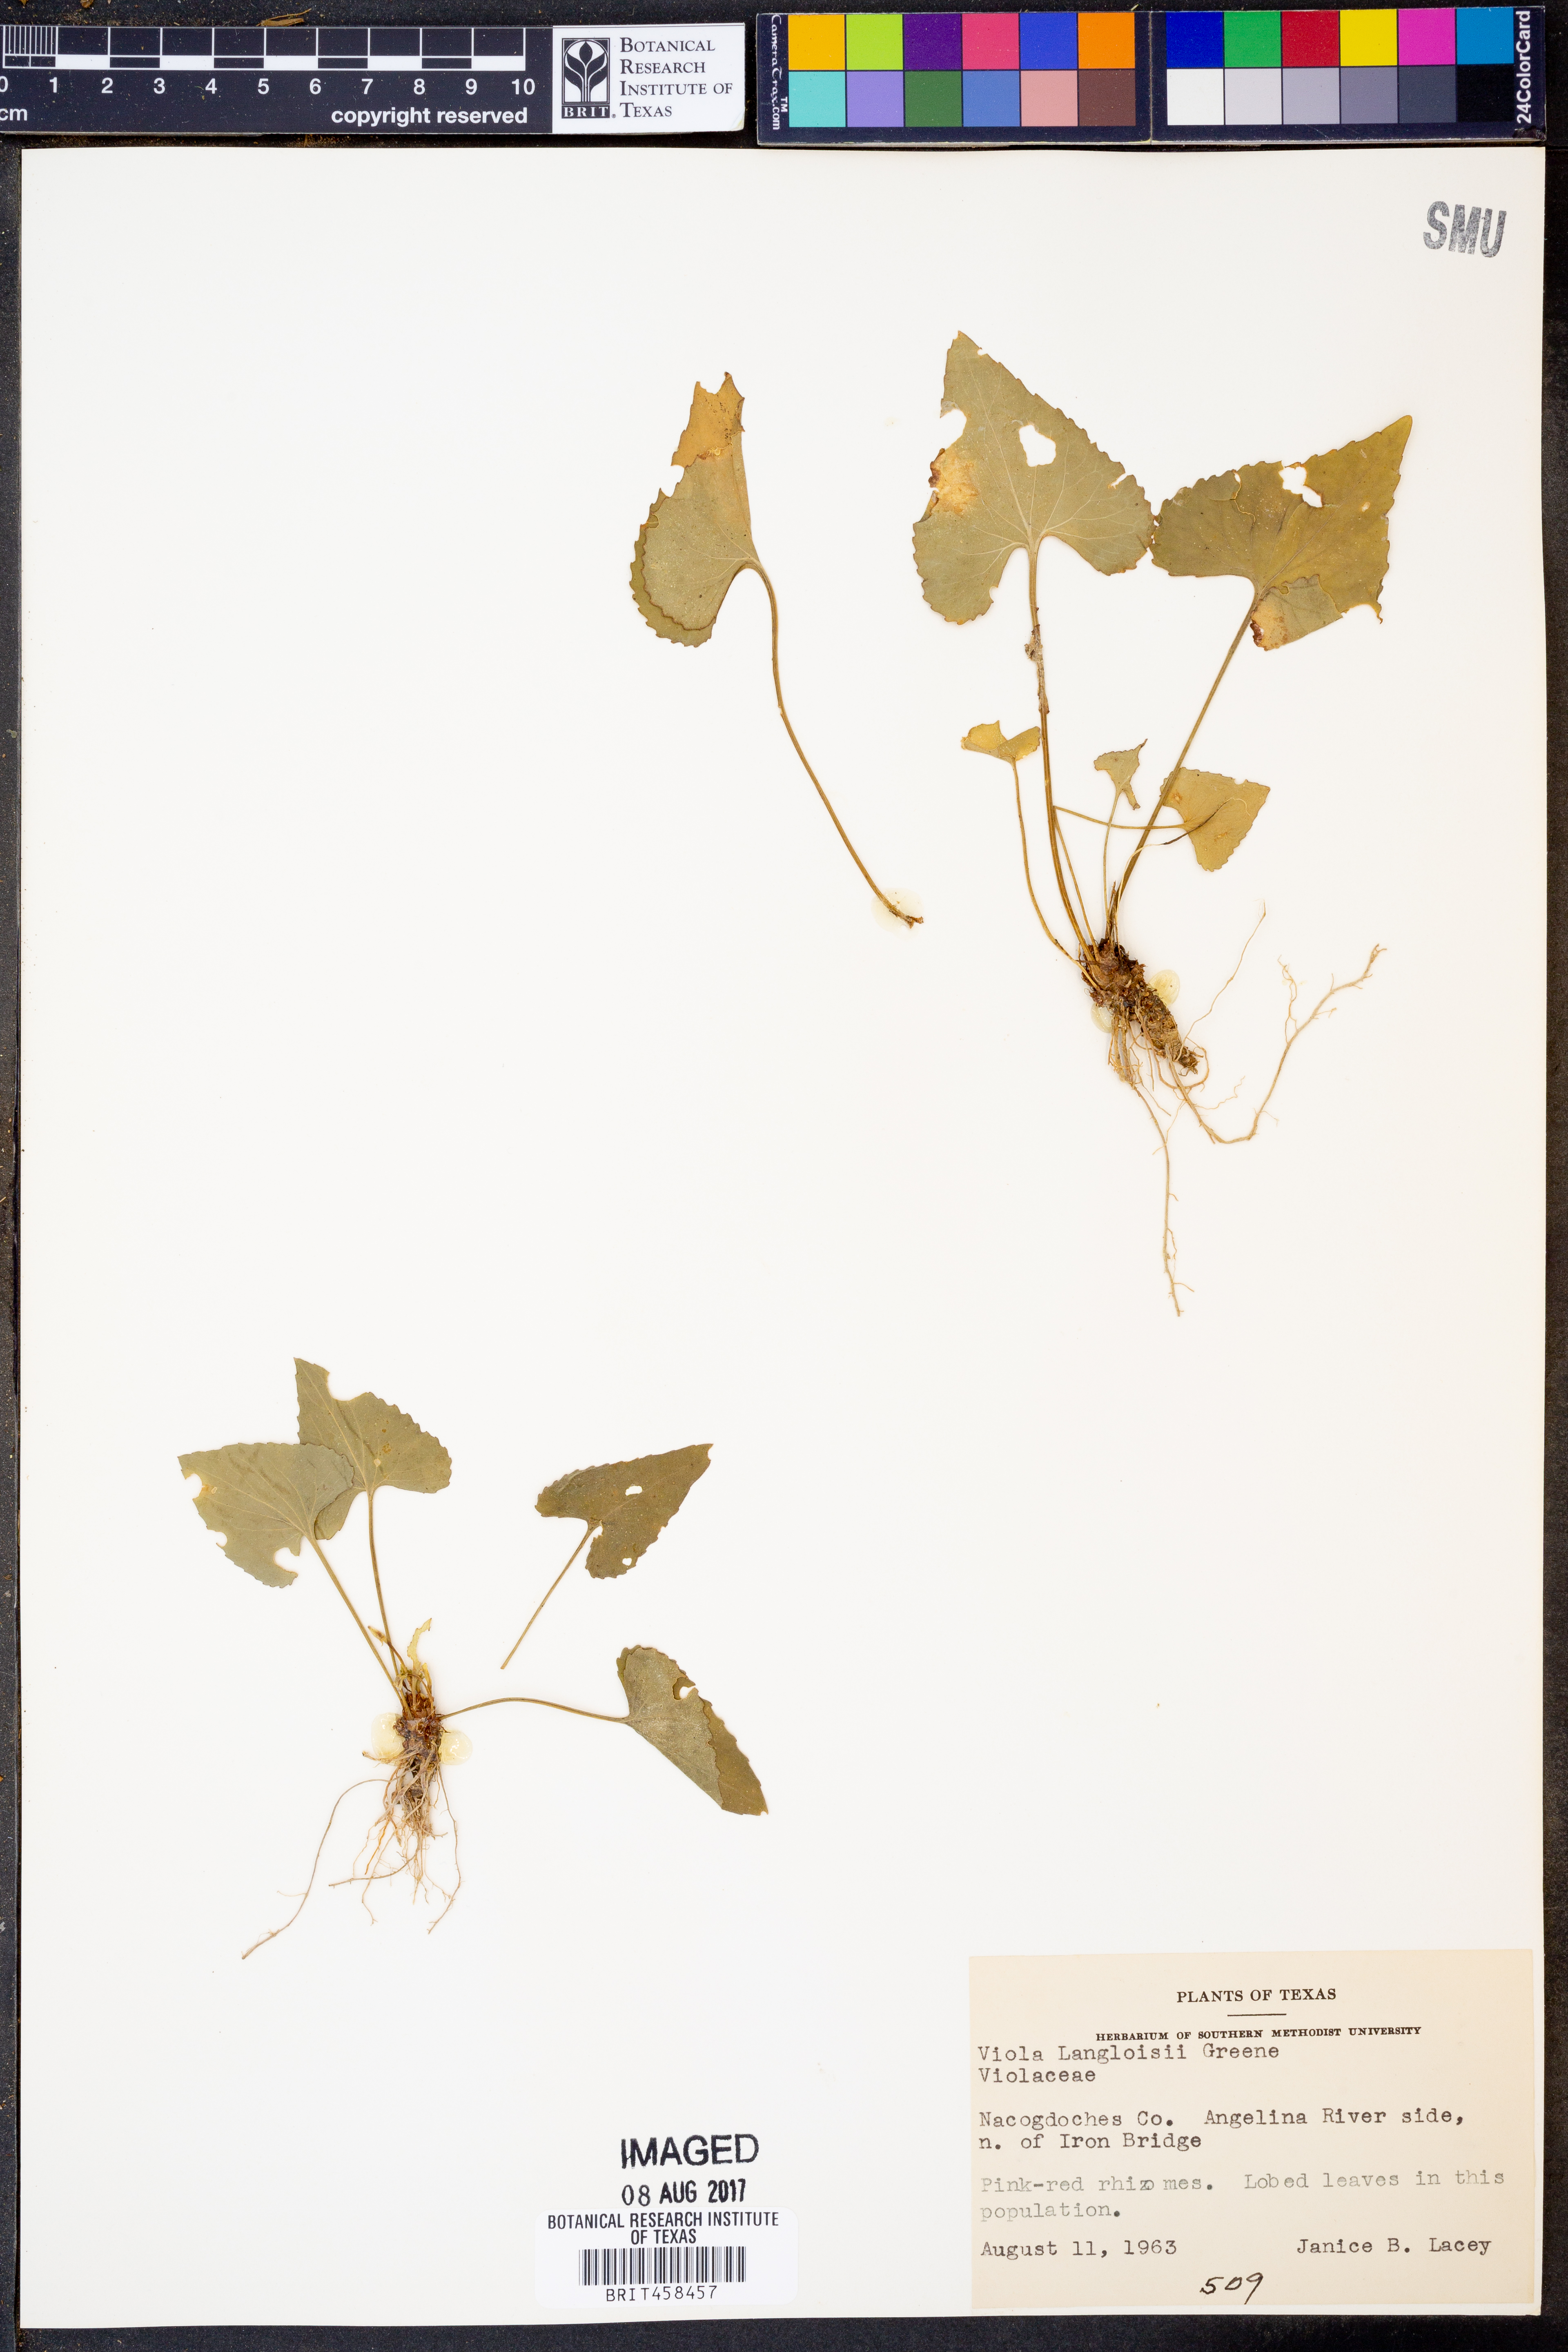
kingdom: Plantae
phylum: Tracheophyta
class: Magnoliopsida
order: Malpighiales
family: Violaceae
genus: Viola
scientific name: Viola langloisii
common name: Langlois' violet
